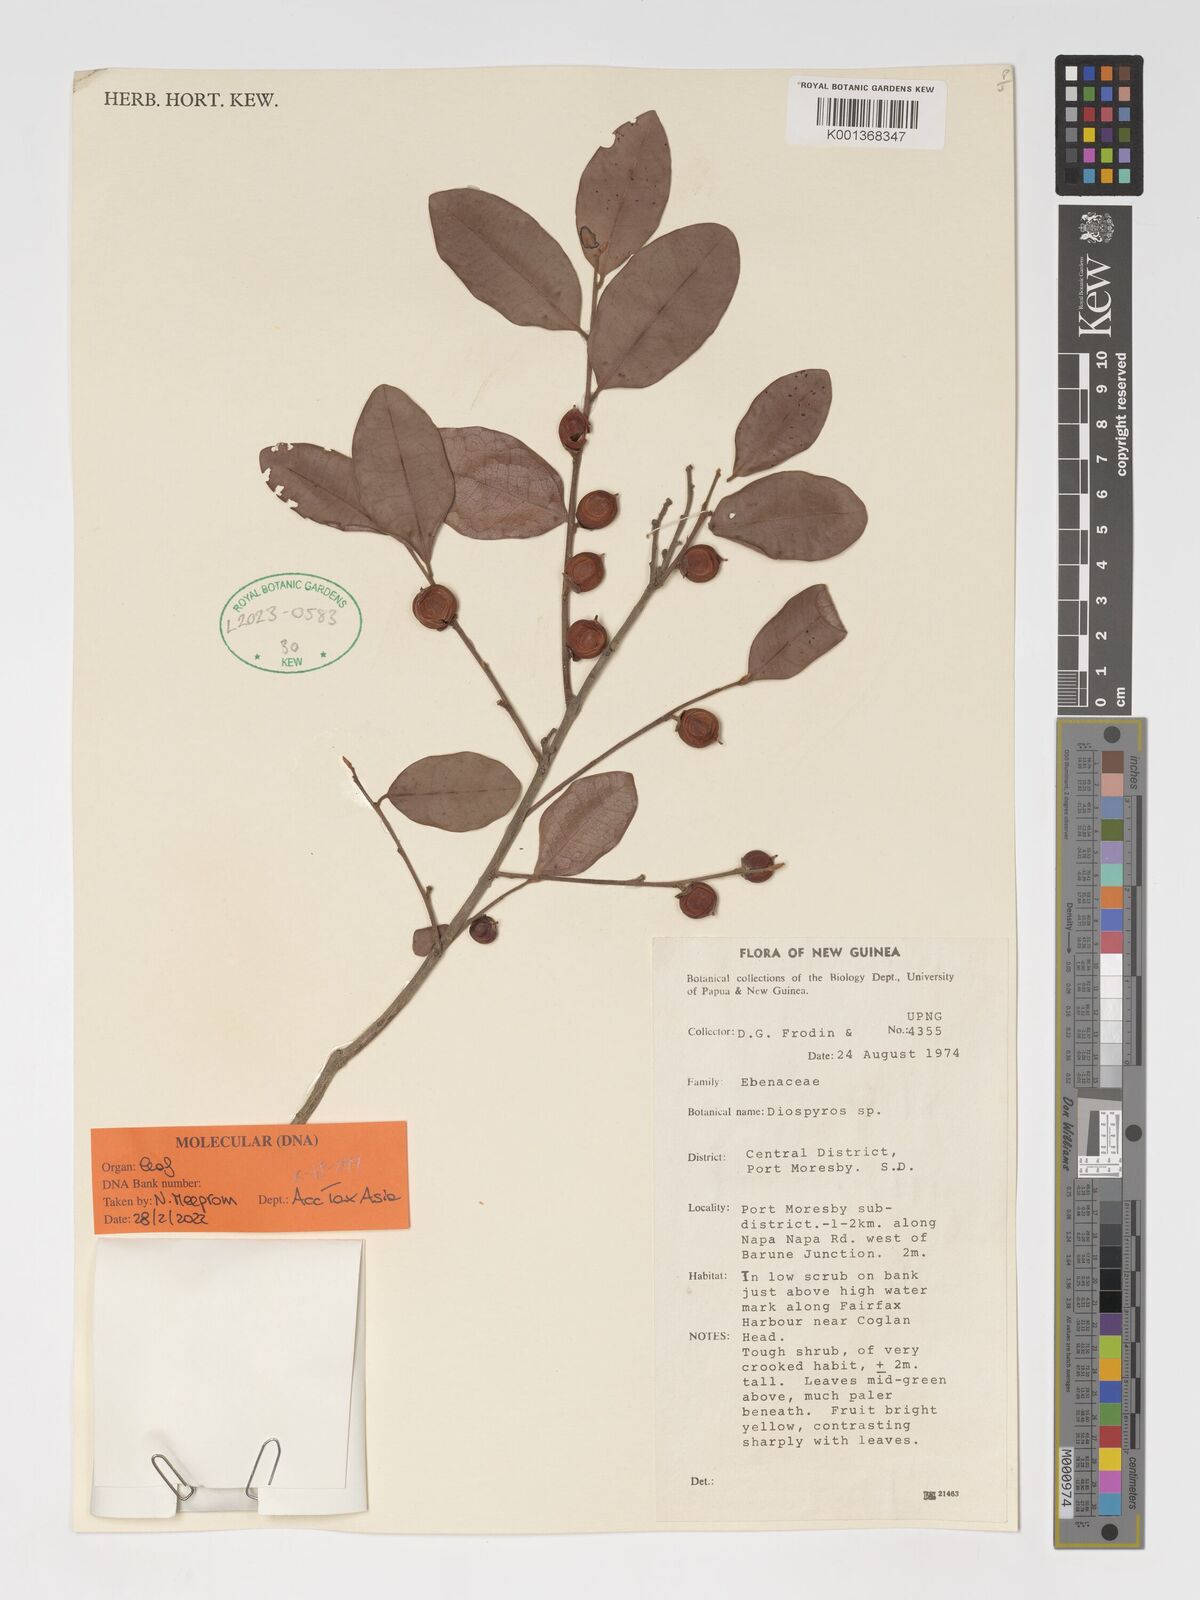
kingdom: Plantae
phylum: Tracheophyta
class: Magnoliopsida
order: Ericales
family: Ebenaceae
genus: Diospyros
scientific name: Diospyros
